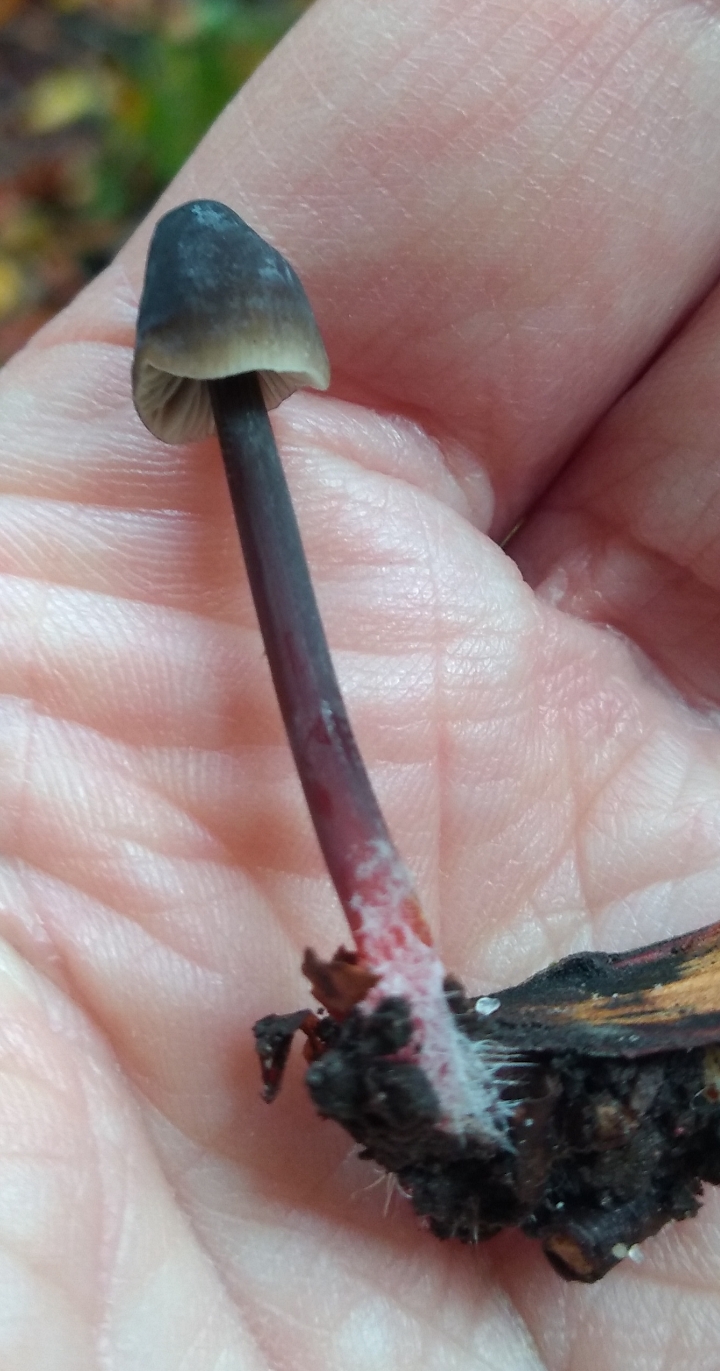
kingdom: Fungi
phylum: Basidiomycota
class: Agaricomycetes
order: Agaricales
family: Mycenaceae
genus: Mycena
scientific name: Mycena crocata
